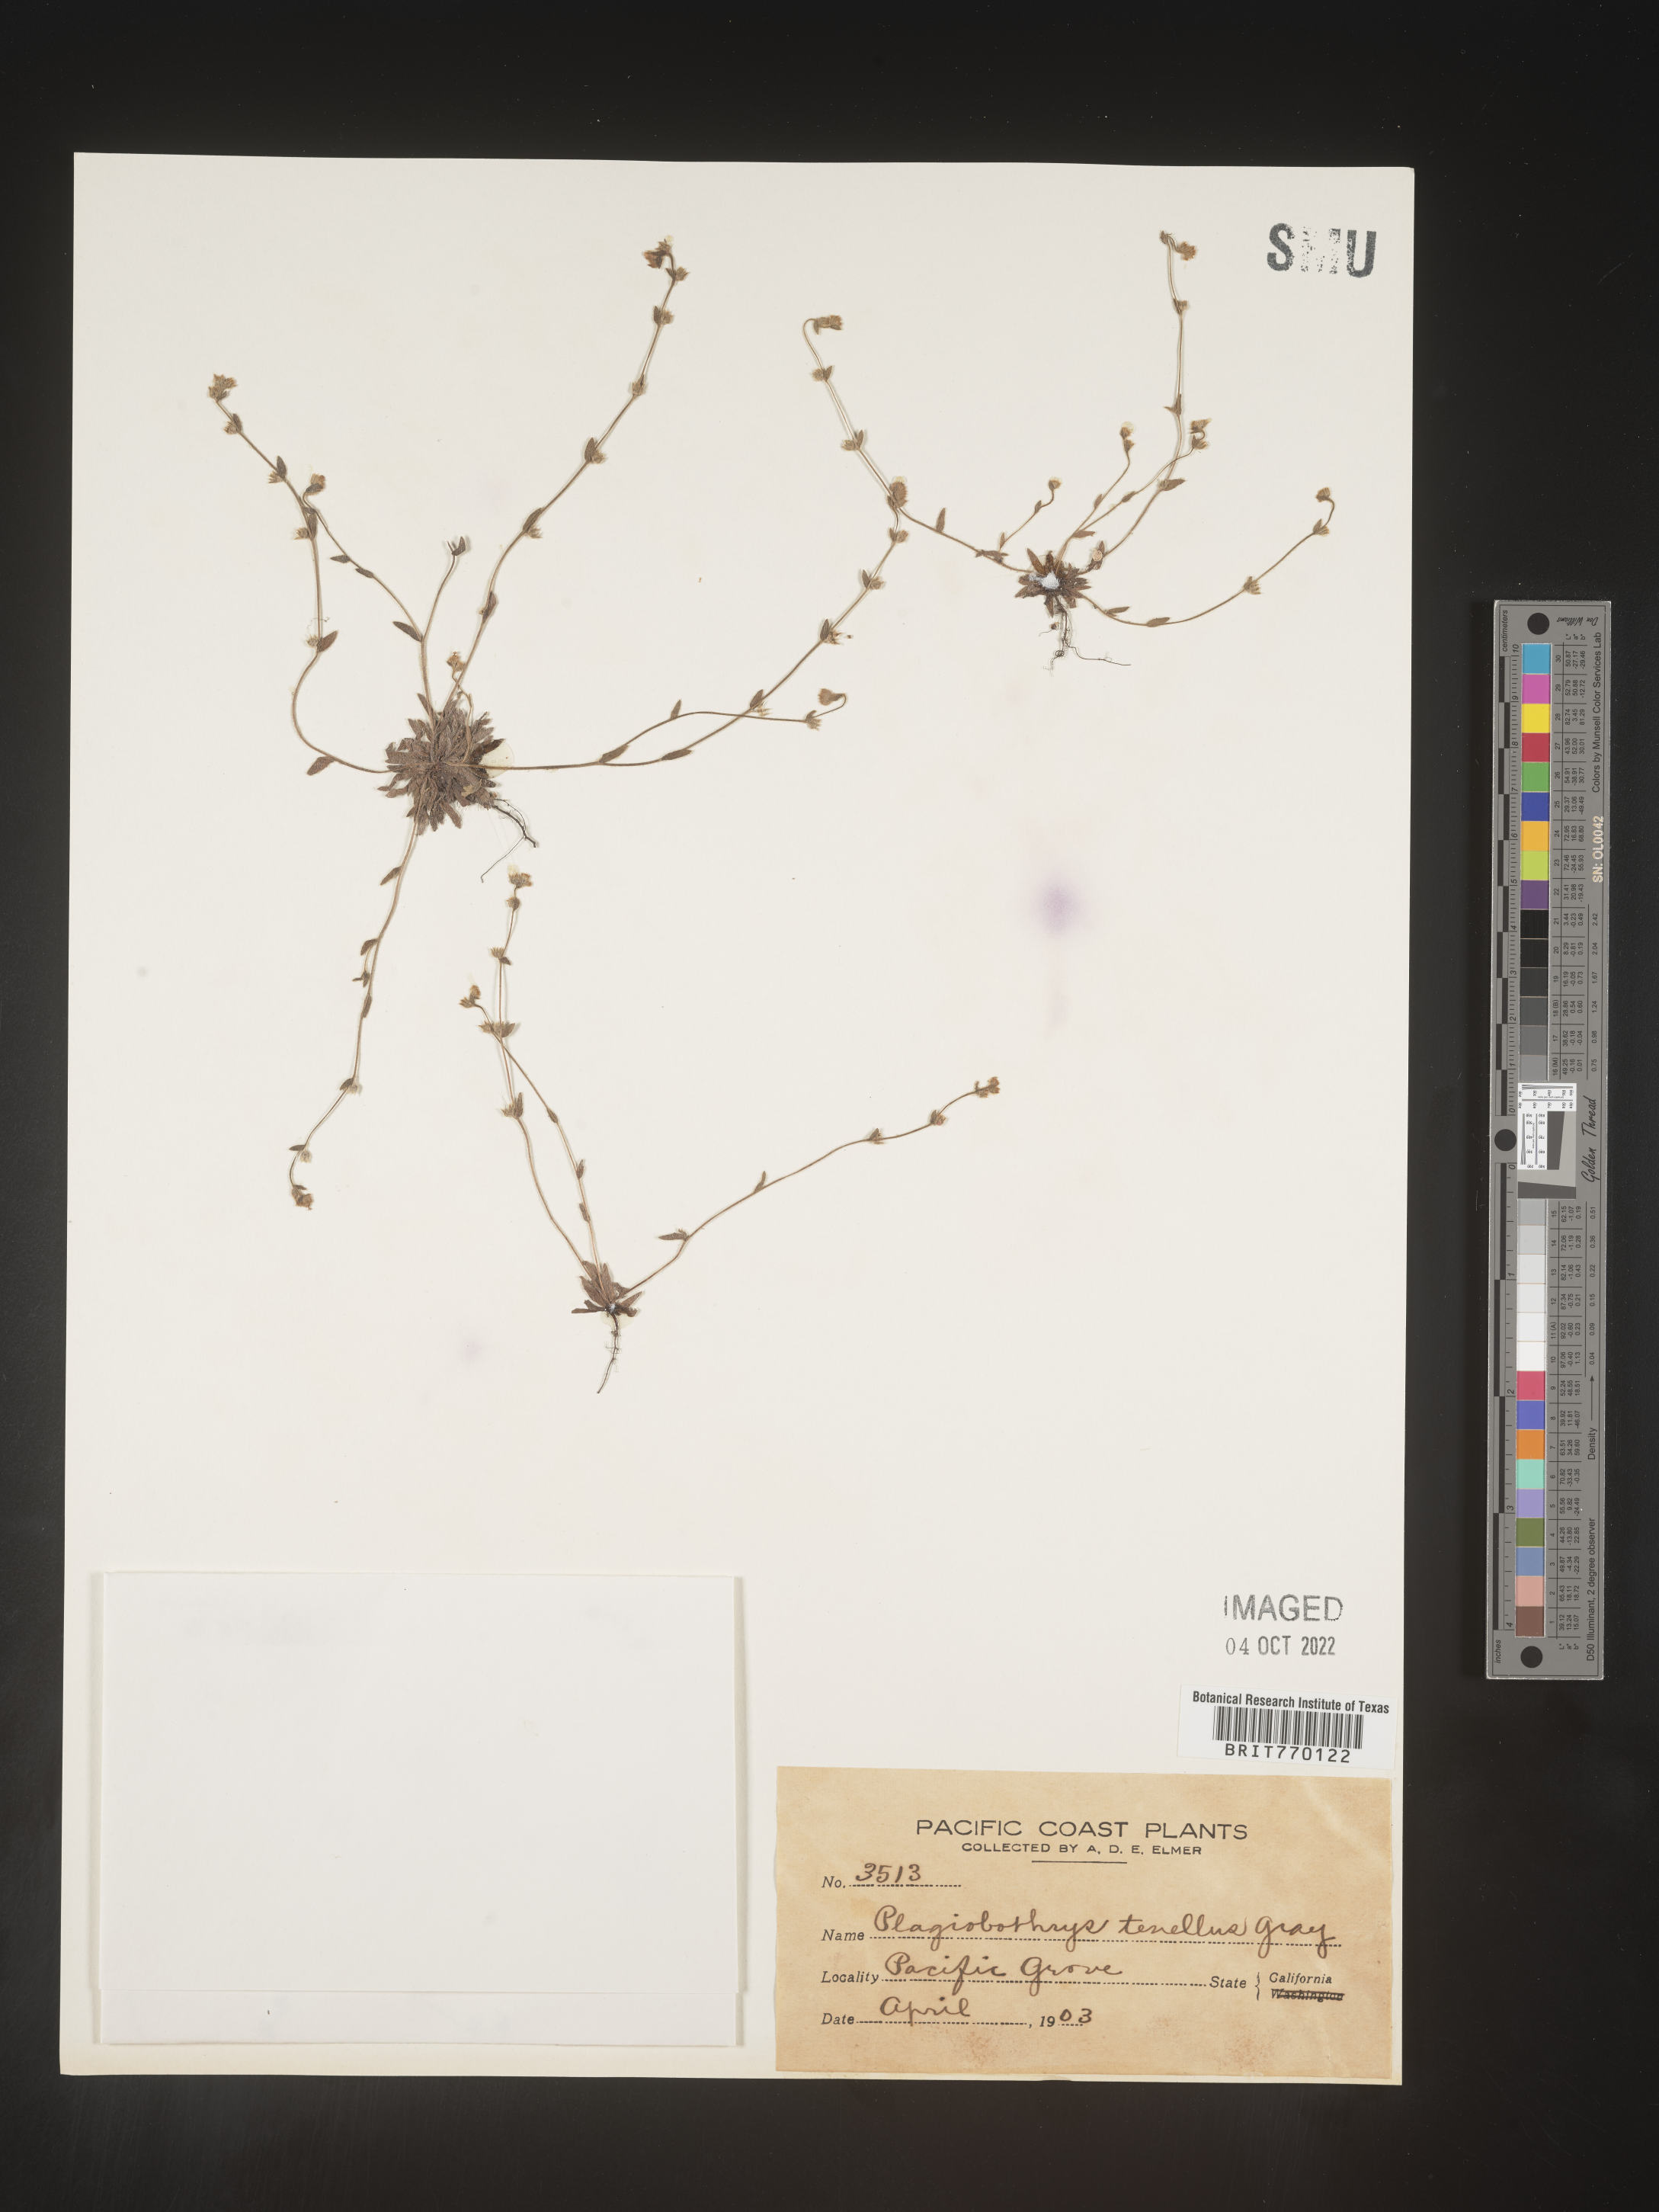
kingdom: Plantae
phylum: Tracheophyta
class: Magnoliopsida
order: Boraginales
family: Boraginaceae
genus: Plagiobothrys
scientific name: Plagiobothrys
